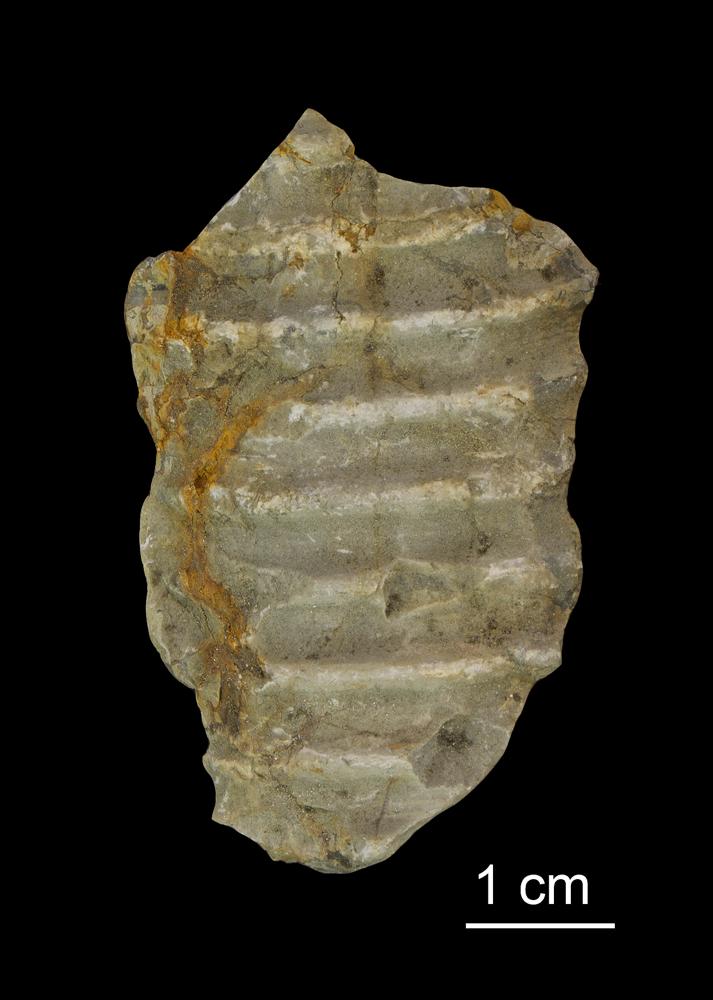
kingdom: Plantae
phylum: Tracheophyta
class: Liliopsida
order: Asparagales
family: Orchidaceae
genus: Orthoceras
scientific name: Orthoceras annulata
